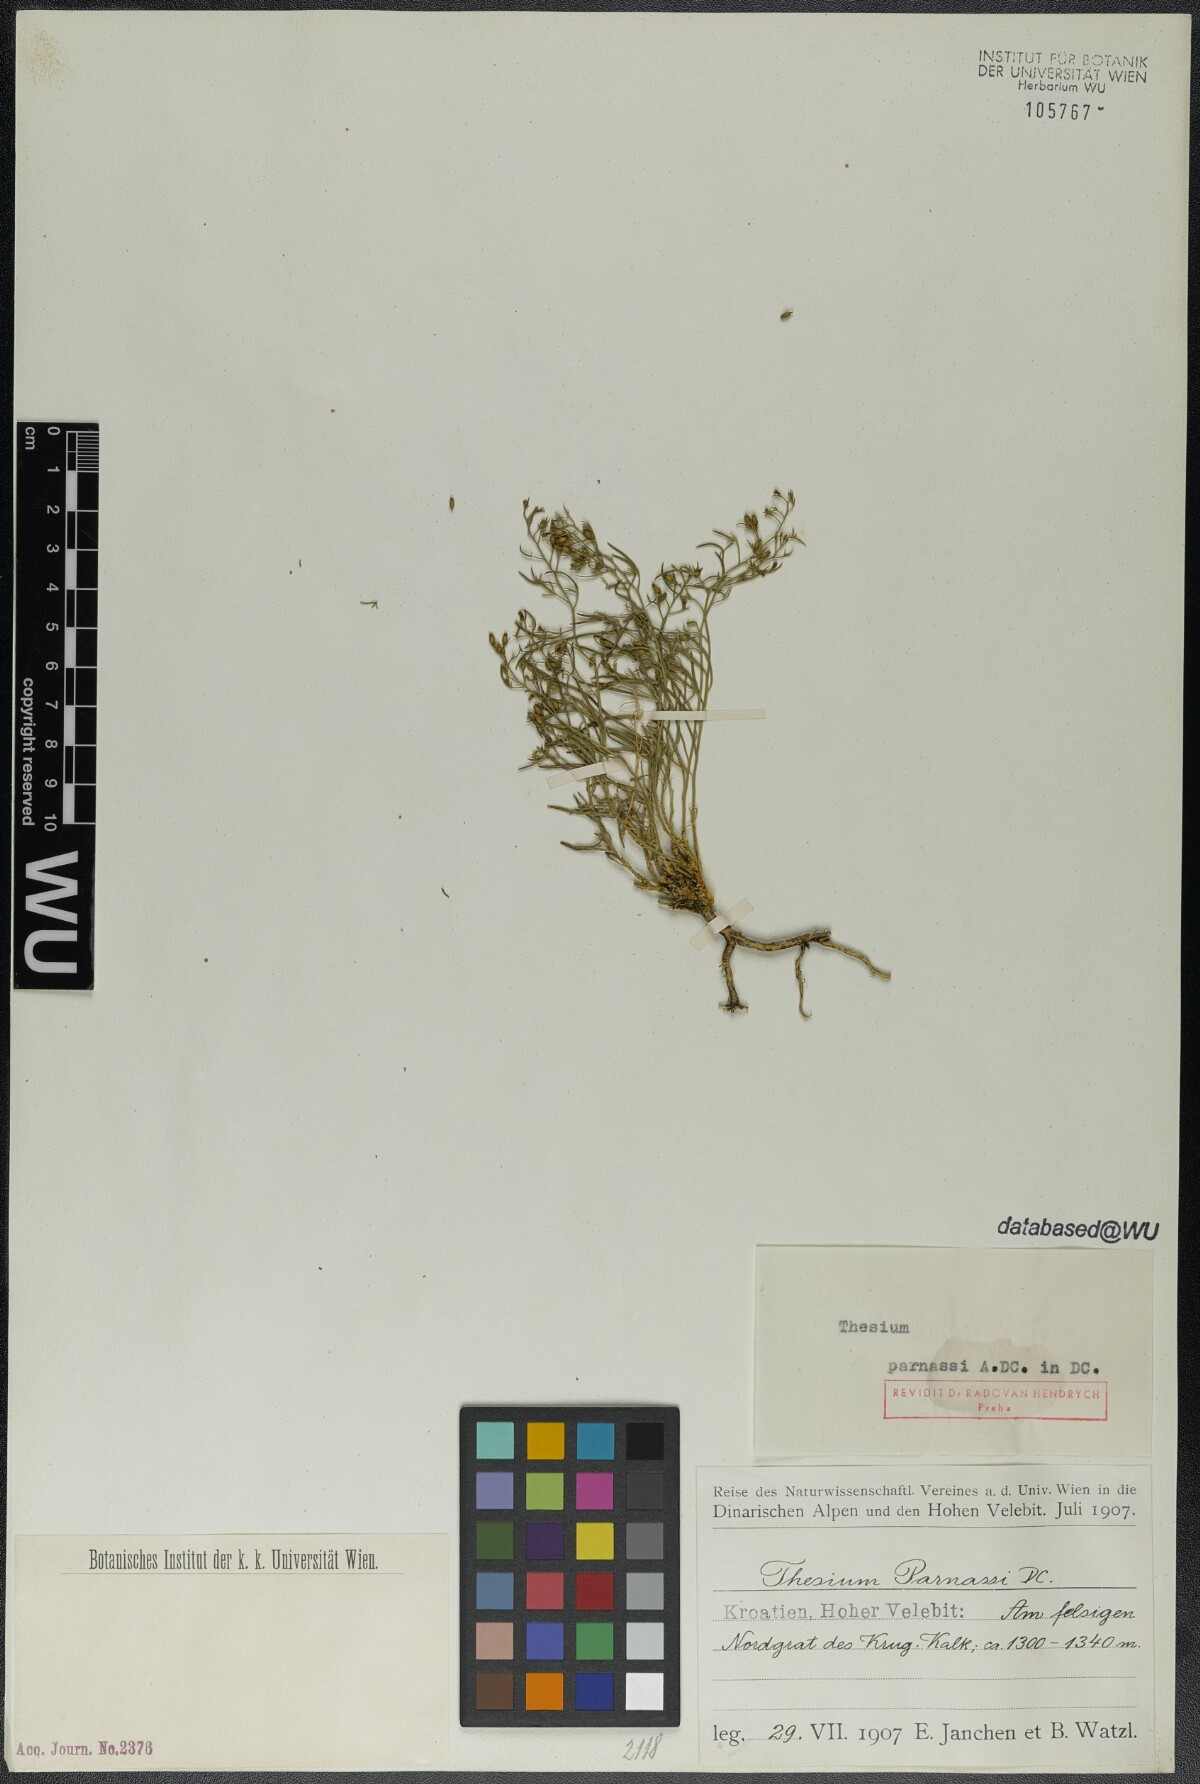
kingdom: Plantae
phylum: Tracheophyta
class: Magnoliopsida
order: Santalales
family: Thesiaceae
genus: Thesium
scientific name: Thesium parnassi
